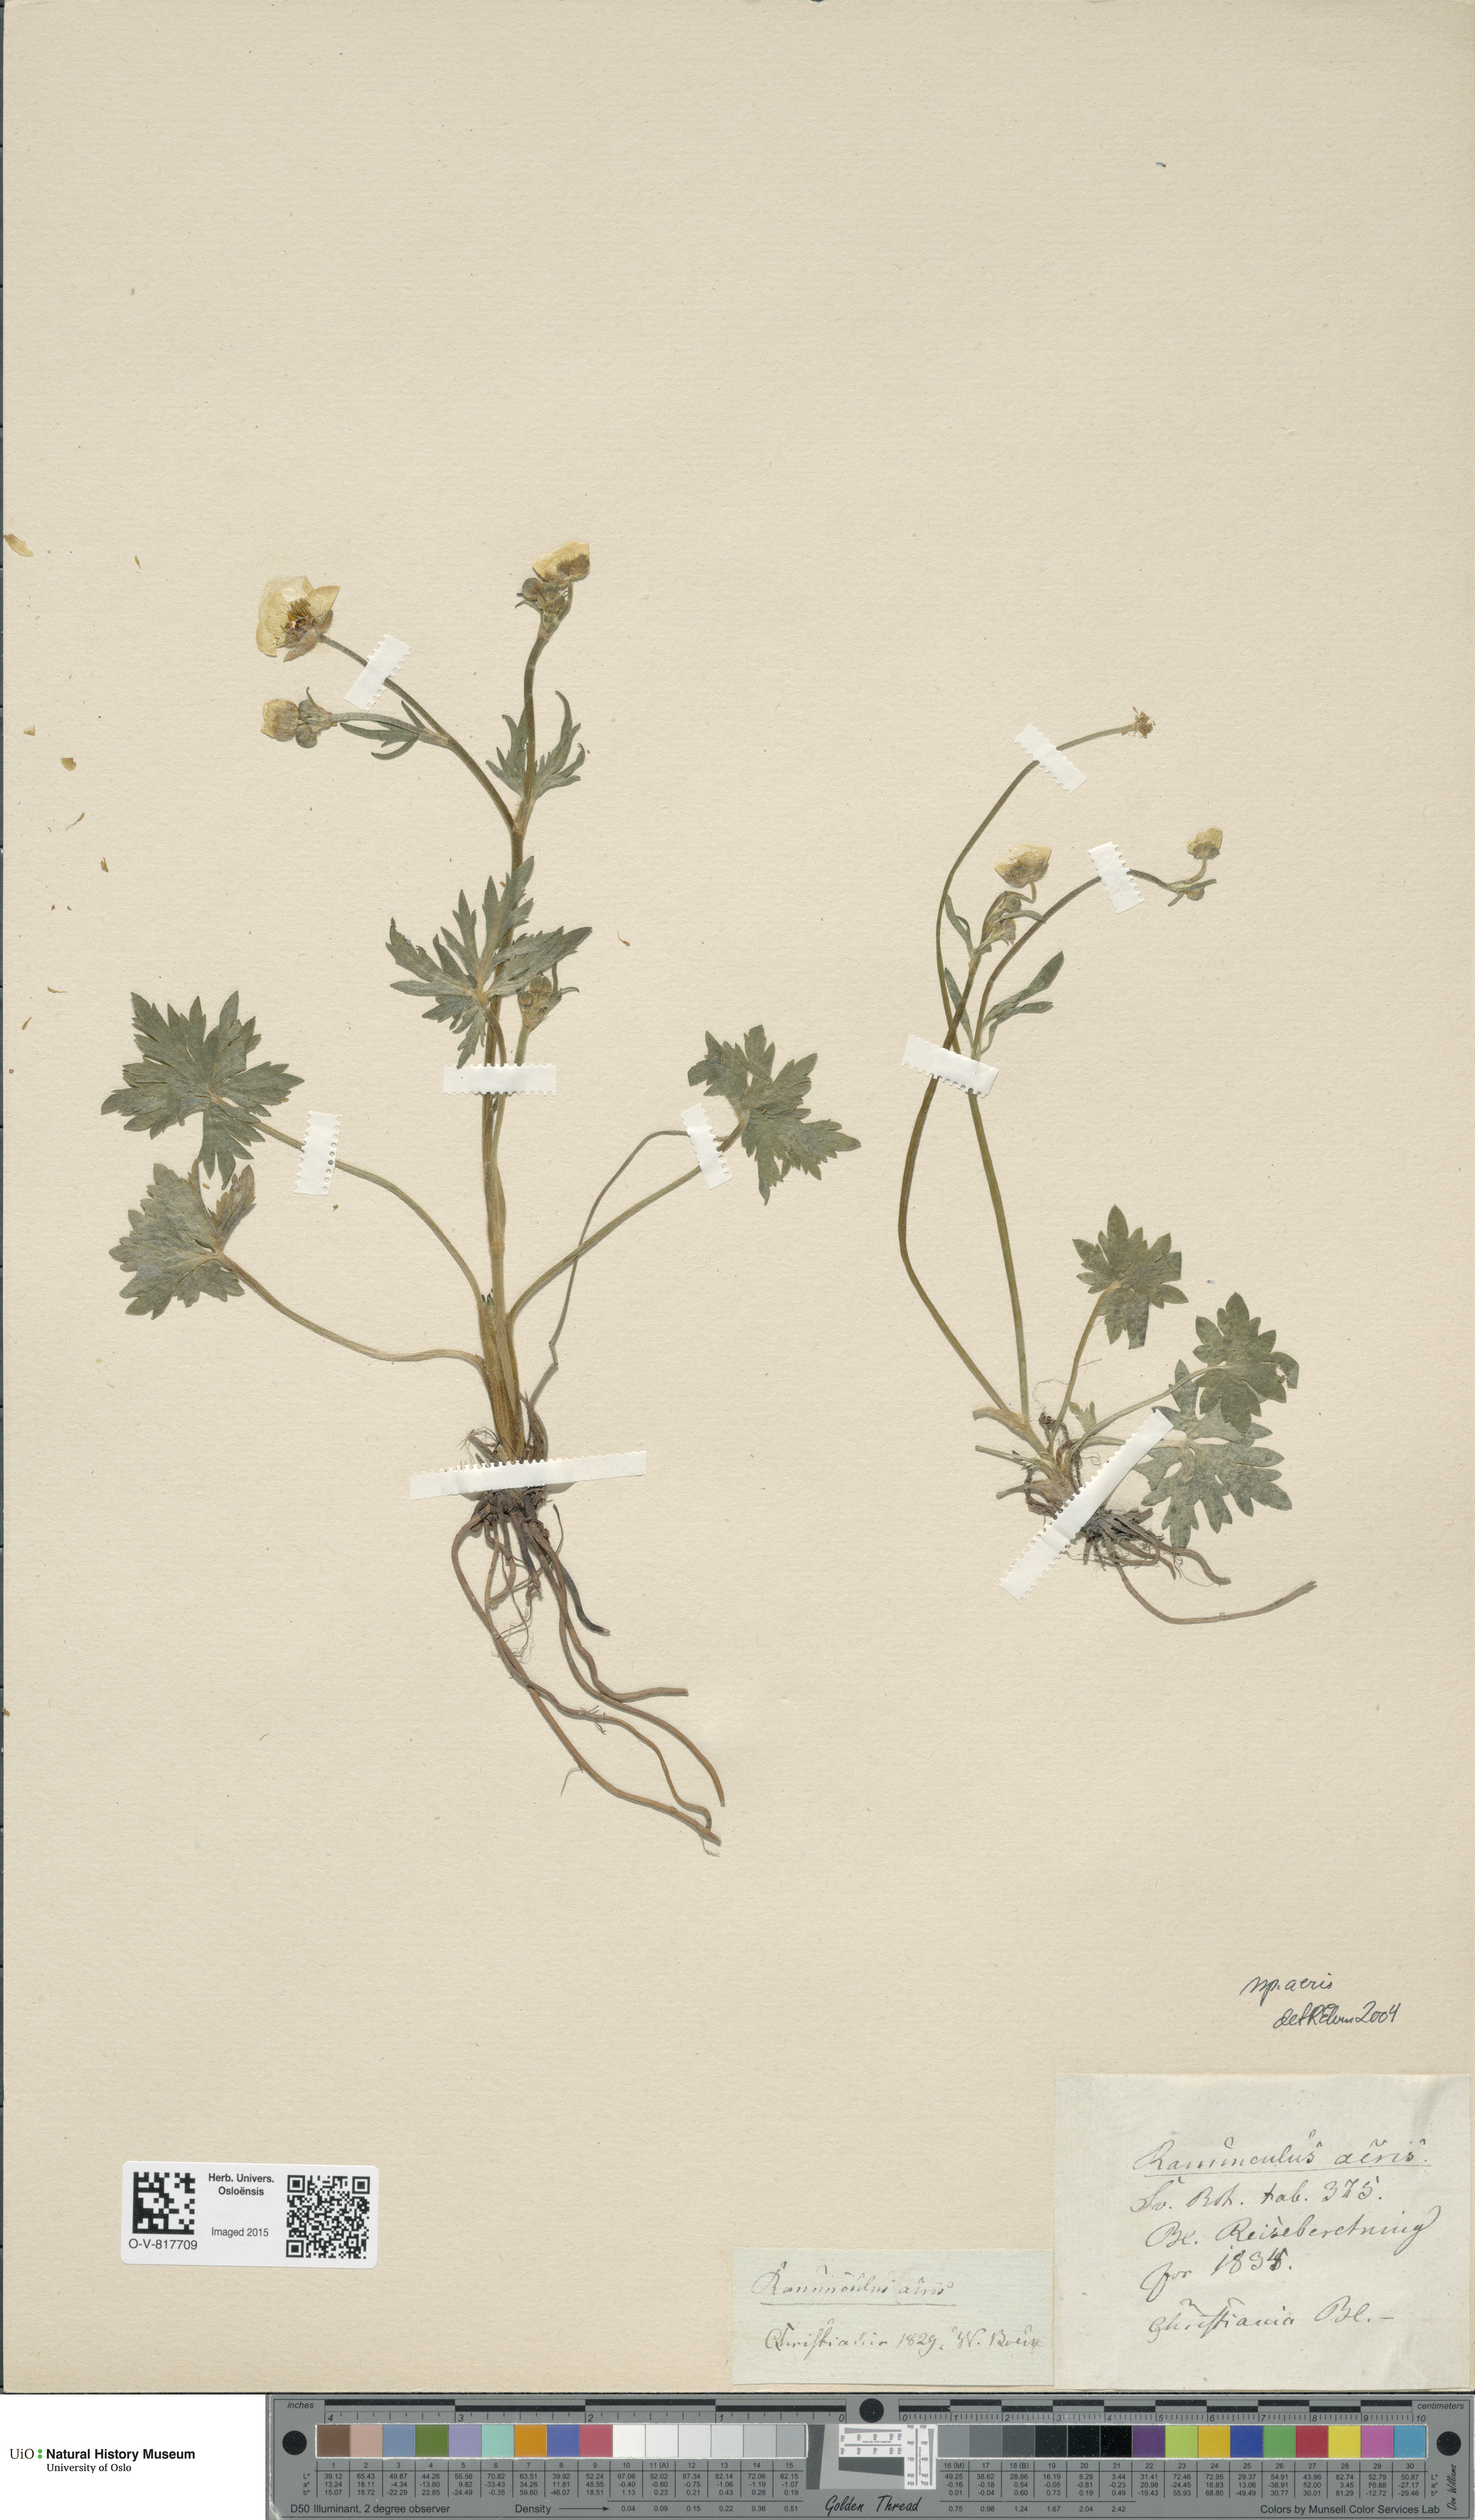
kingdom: Plantae
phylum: Tracheophyta
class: Magnoliopsida
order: Ranunculales
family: Ranunculaceae
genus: Ranunculus
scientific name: Ranunculus acris
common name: Meadow buttercup
